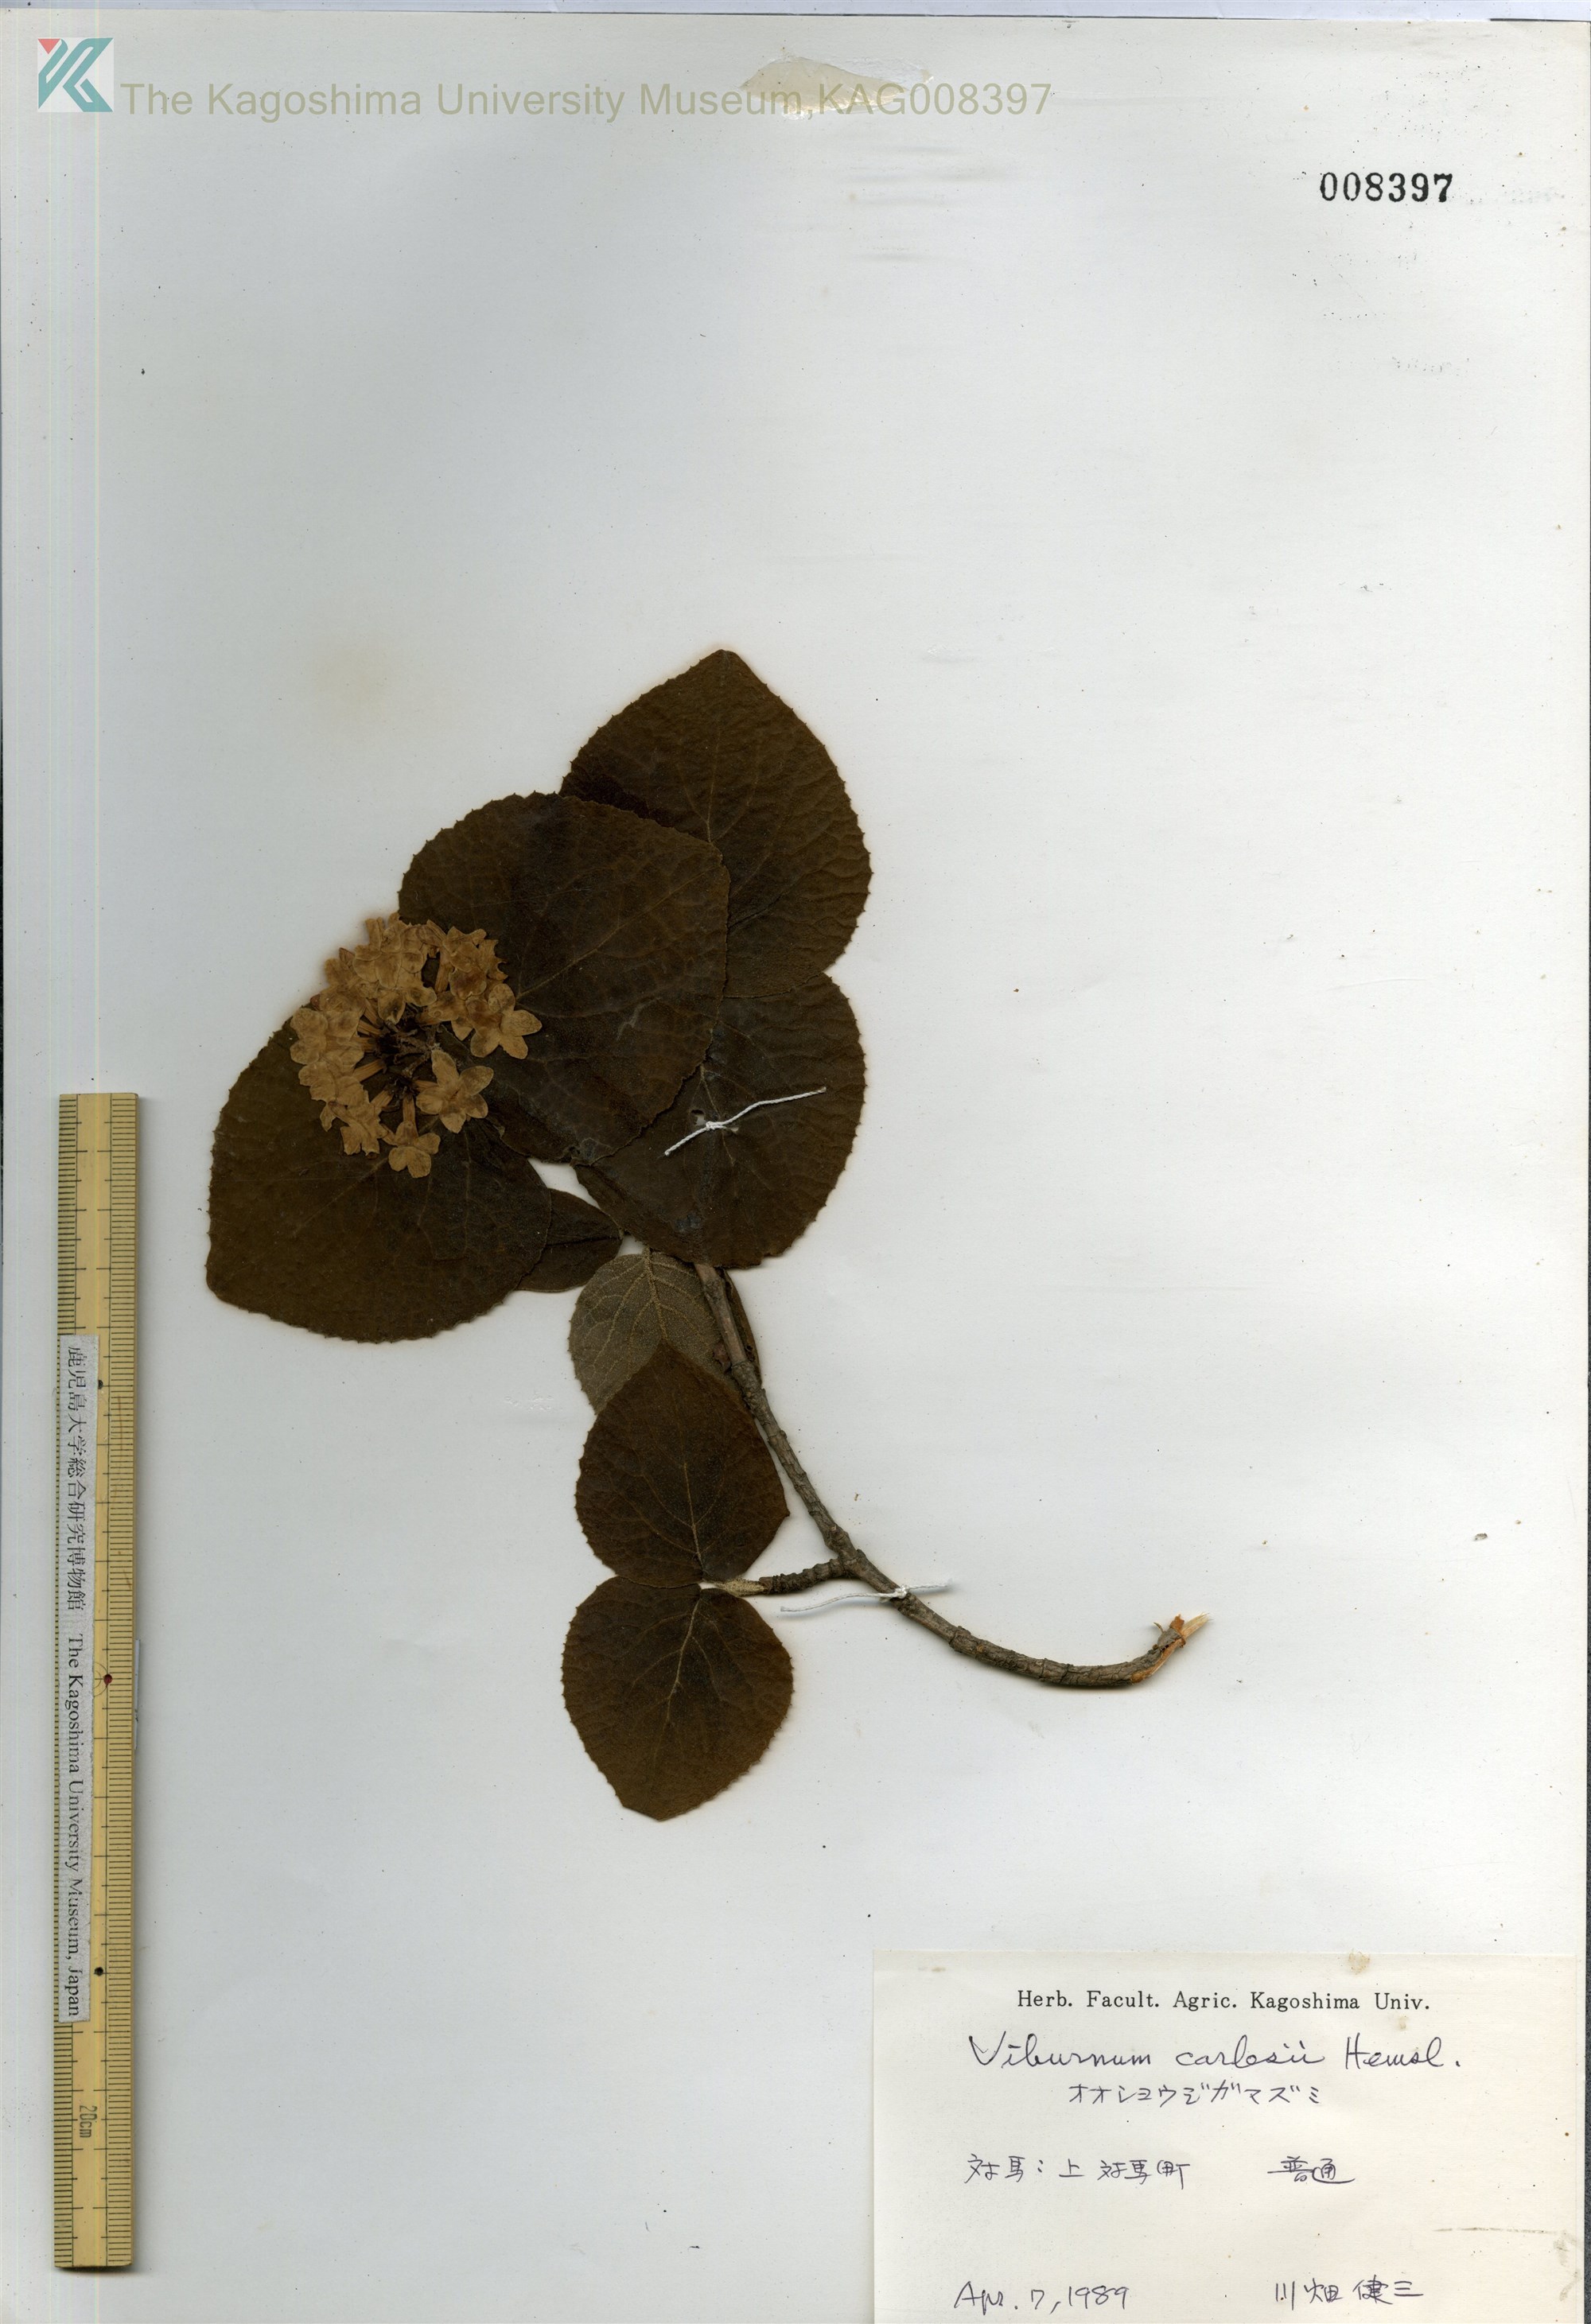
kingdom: Plantae
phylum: Tracheophyta
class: Magnoliopsida
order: Dipsacales
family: Viburnaceae
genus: Viburnum
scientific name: Viburnum carlesii
